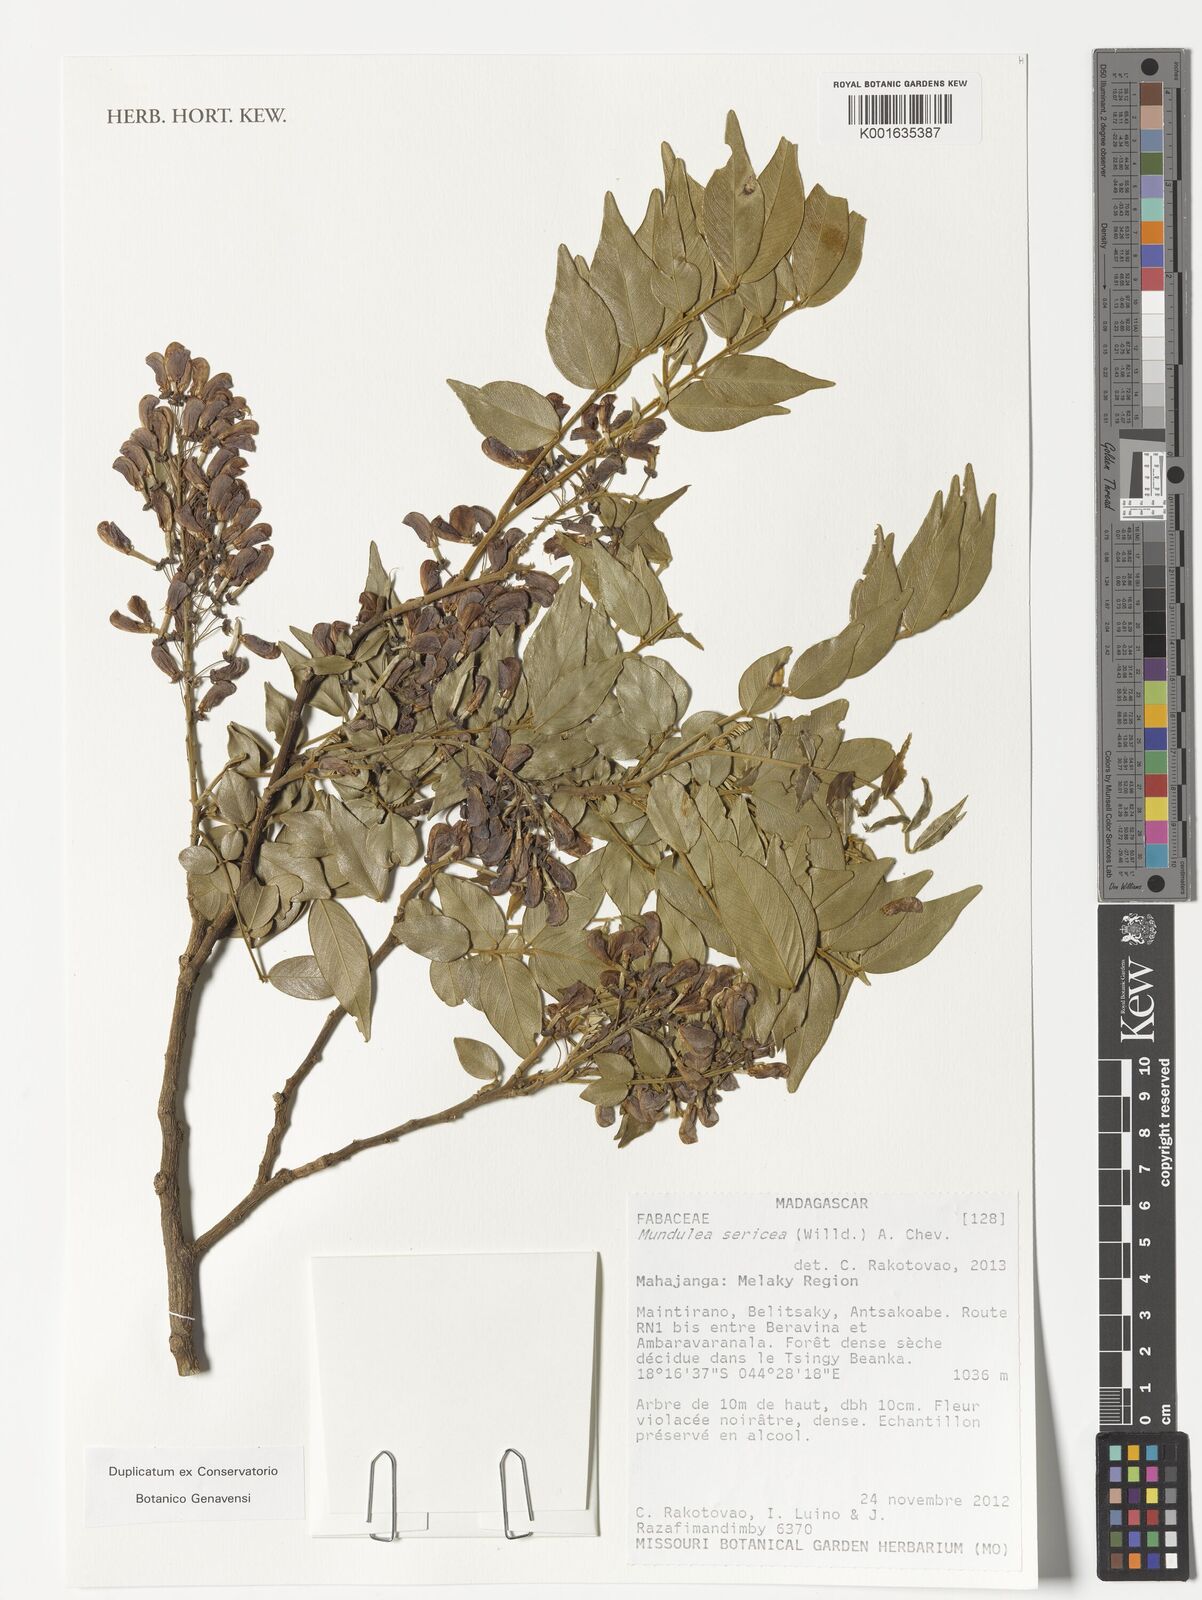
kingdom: Plantae
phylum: Tracheophyta
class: Magnoliopsida
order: Fabales
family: Fabaceae
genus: Mundulea
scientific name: Mundulea sericea
